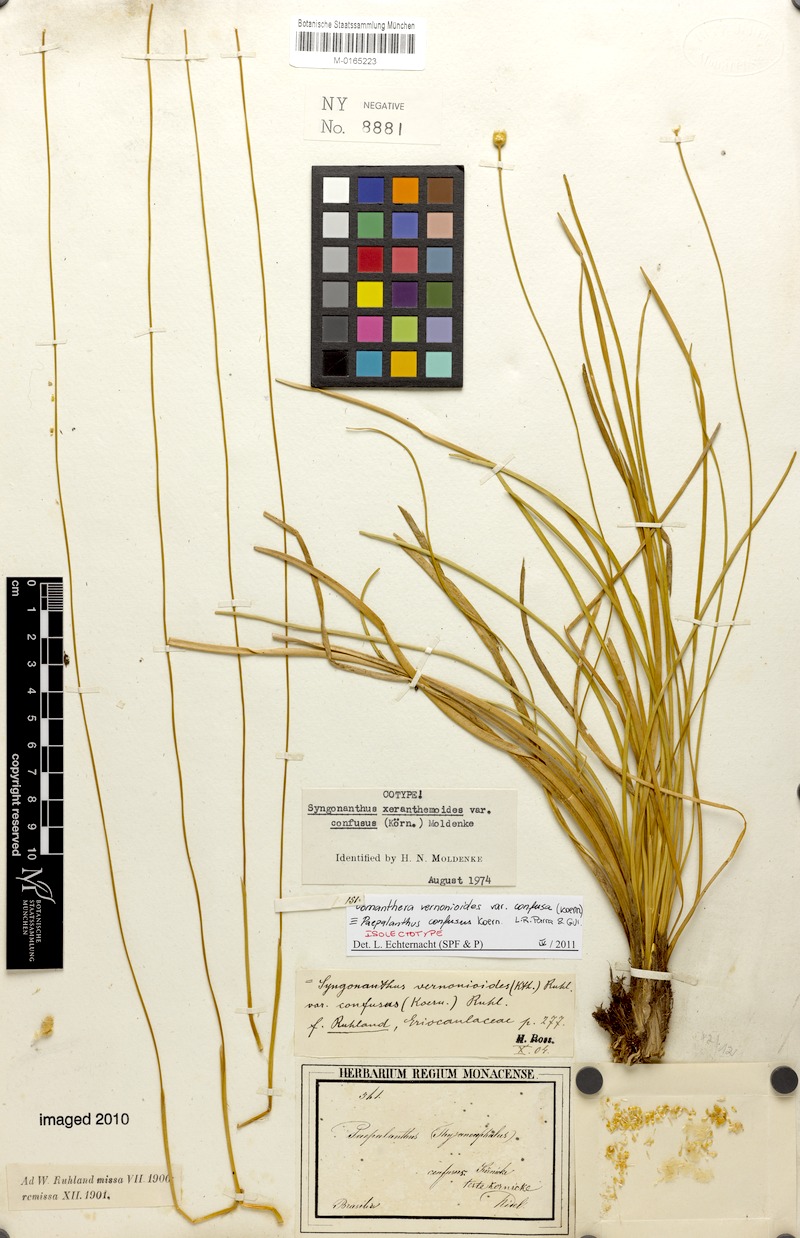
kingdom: Plantae
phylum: Tracheophyta
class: Liliopsida
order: Poales
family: Eriocaulaceae
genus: Comanthera
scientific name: Comanthera centauroides
